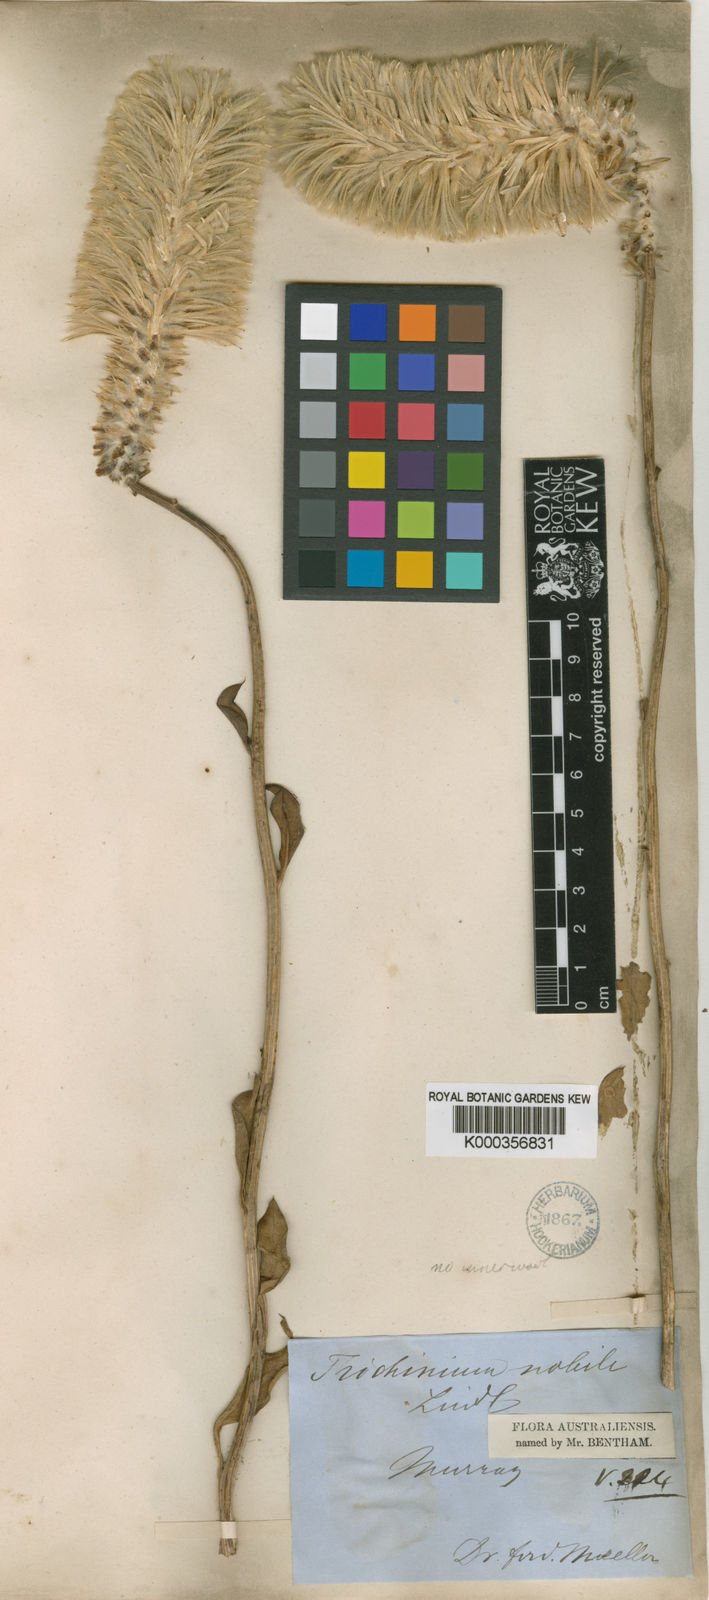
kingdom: Plantae
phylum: Tracheophyta
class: Magnoliopsida
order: Caryophyllales
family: Amaranthaceae
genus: Ptilotus
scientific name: Ptilotus nobilis
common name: Regal-foxtail
